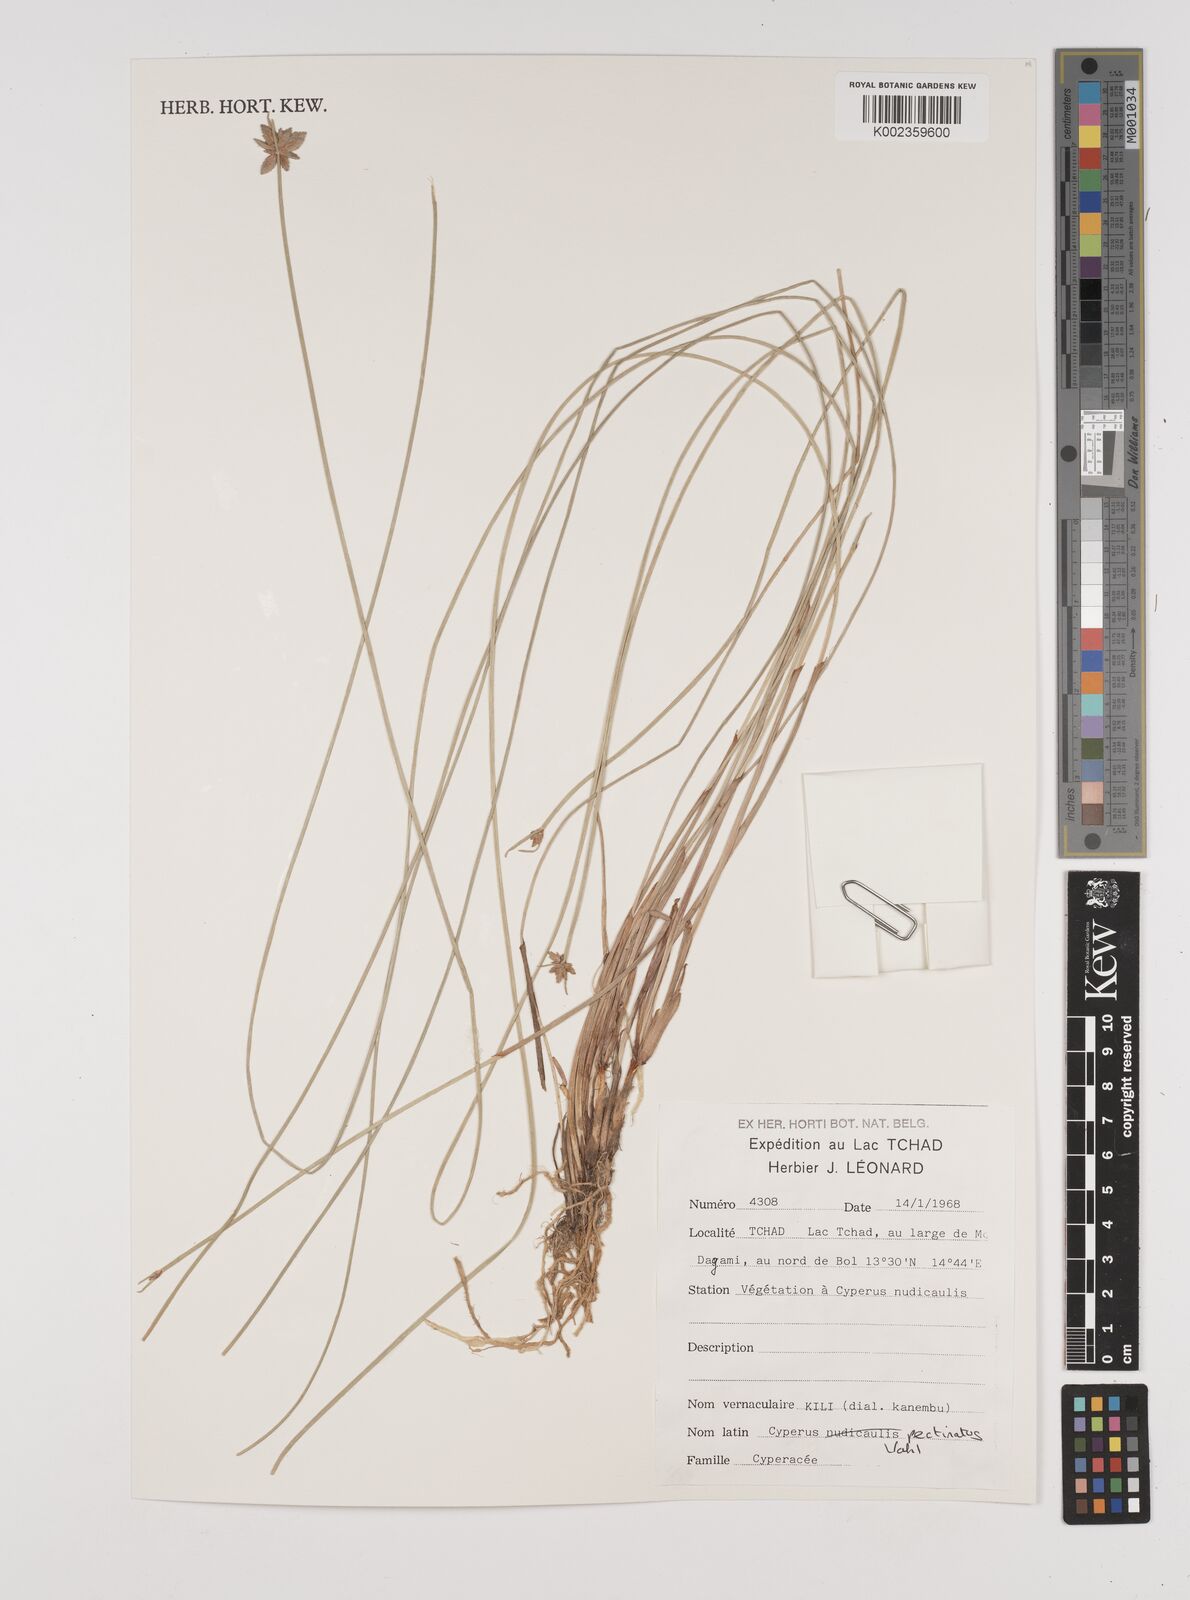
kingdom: Plantae
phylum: Tracheophyta
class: Liliopsida
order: Poales
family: Cyperaceae
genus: Cyperus
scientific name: Cyperus pectinatus
